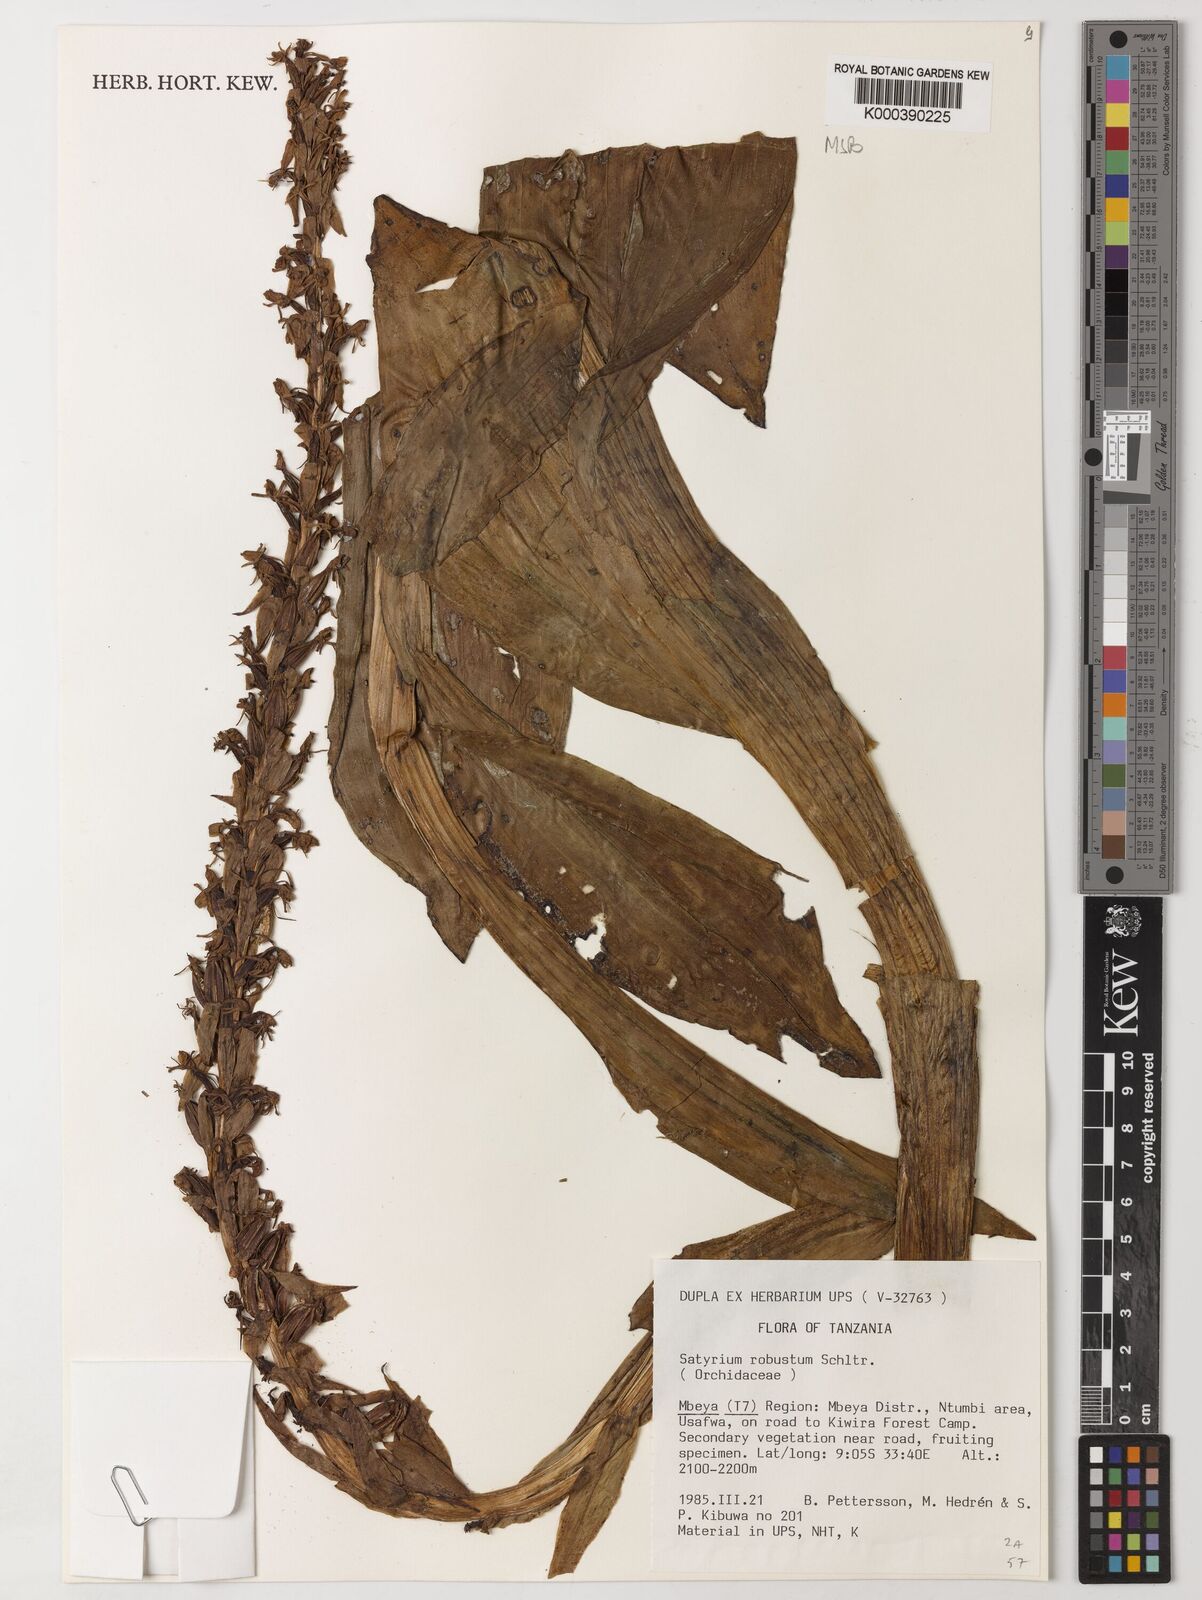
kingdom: Plantae
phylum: Tracheophyta
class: Liliopsida
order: Asparagales
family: Orchidaceae
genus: Satyrium
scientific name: Satyrium robustum
